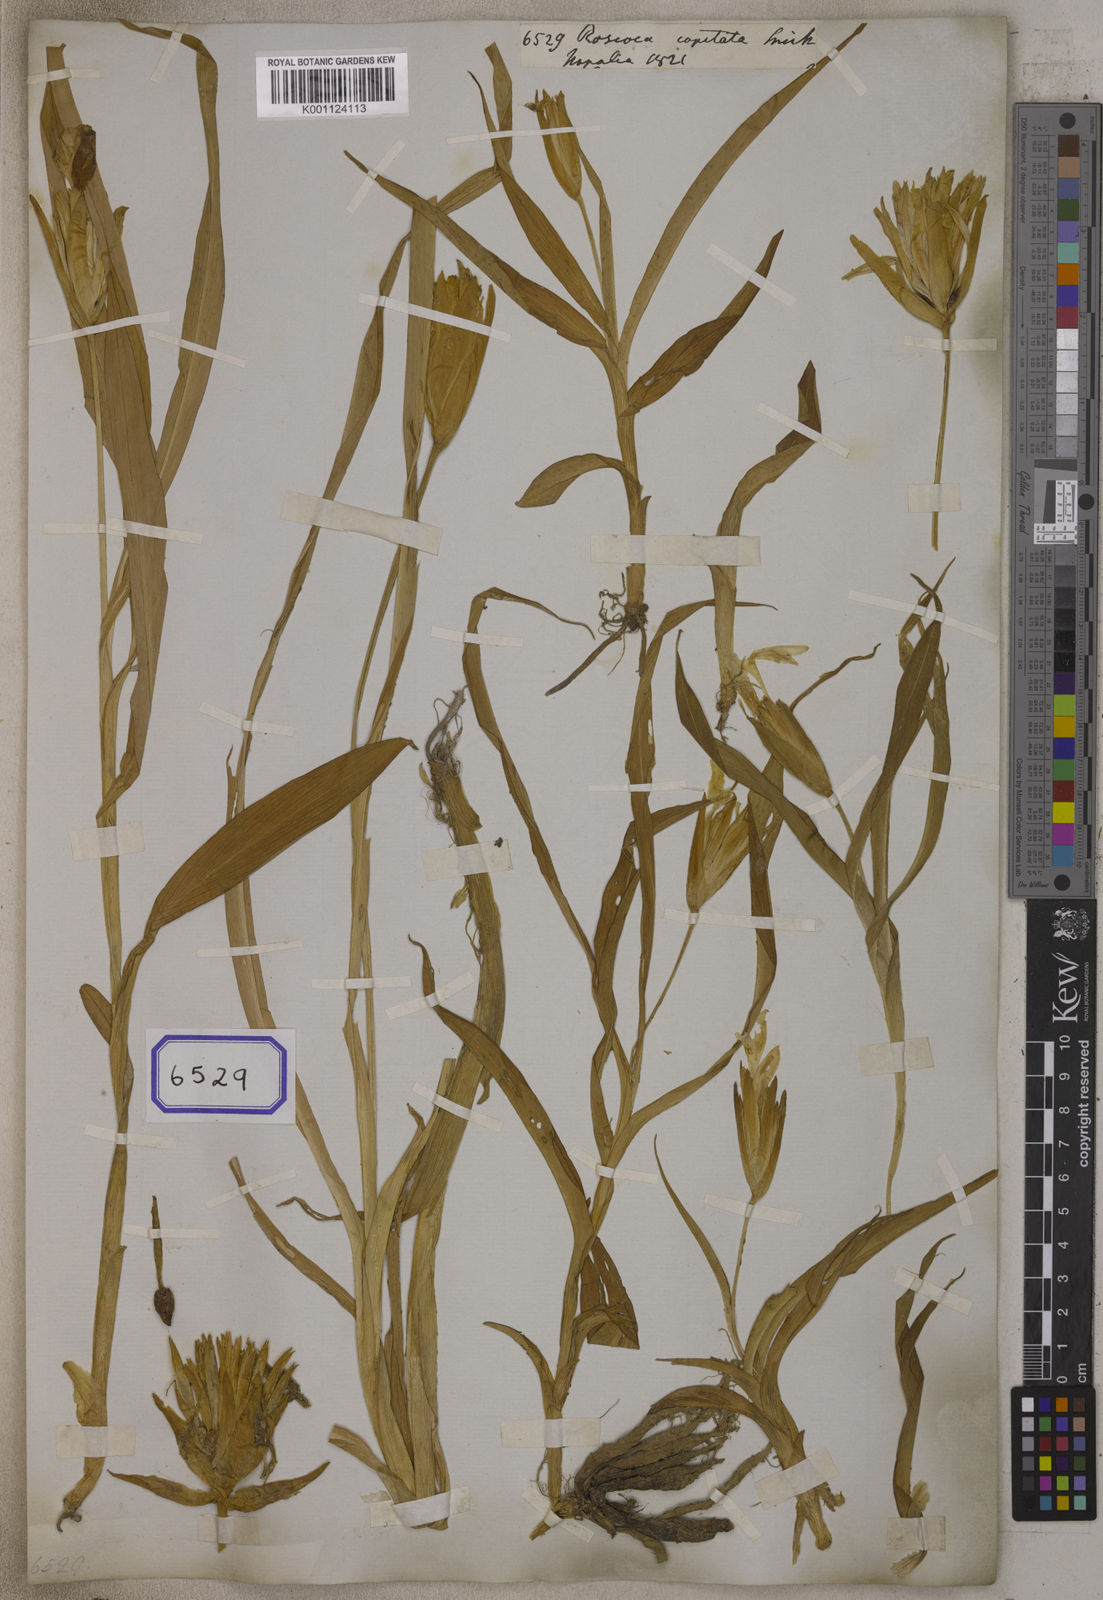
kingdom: Plantae
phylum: Tracheophyta
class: Liliopsida
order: Zingiberales
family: Zingiberaceae
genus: Roscoea
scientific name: Roscoea capitata
